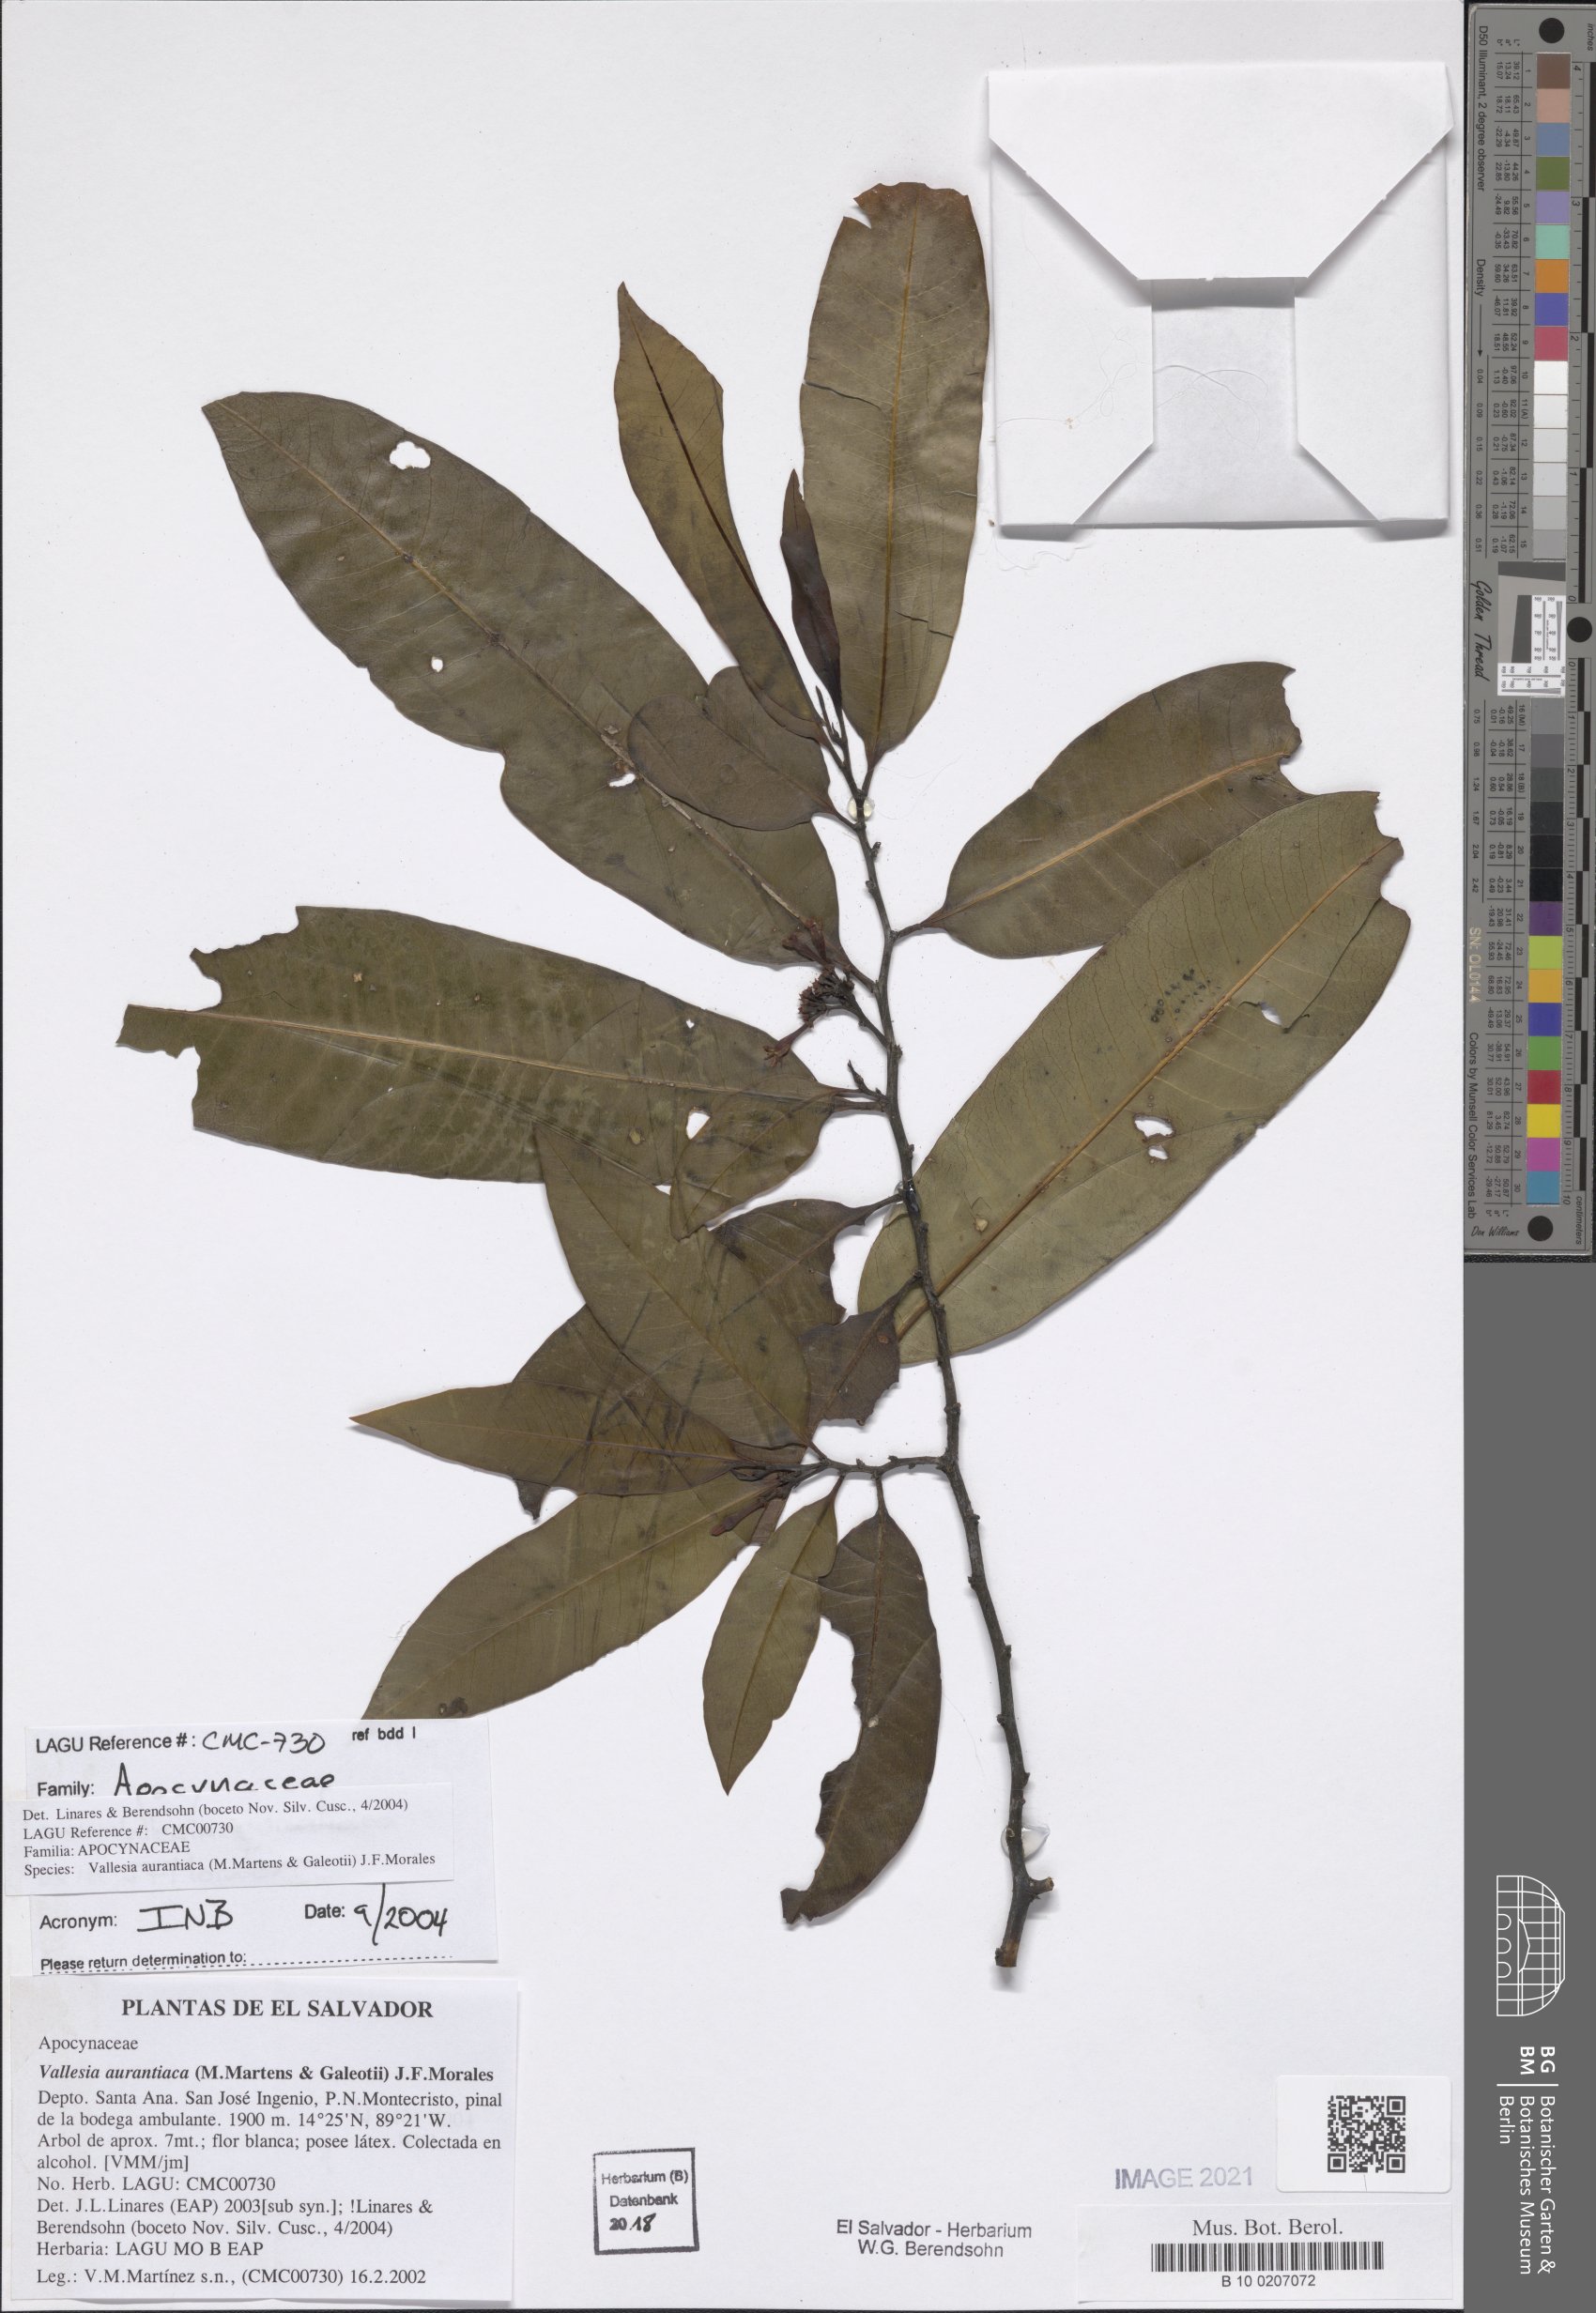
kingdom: Plantae
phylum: Tracheophyta
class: Magnoliopsida
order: Gentianales
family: Apocynaceae
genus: Vallesia
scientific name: Vallesia aurantiaca
